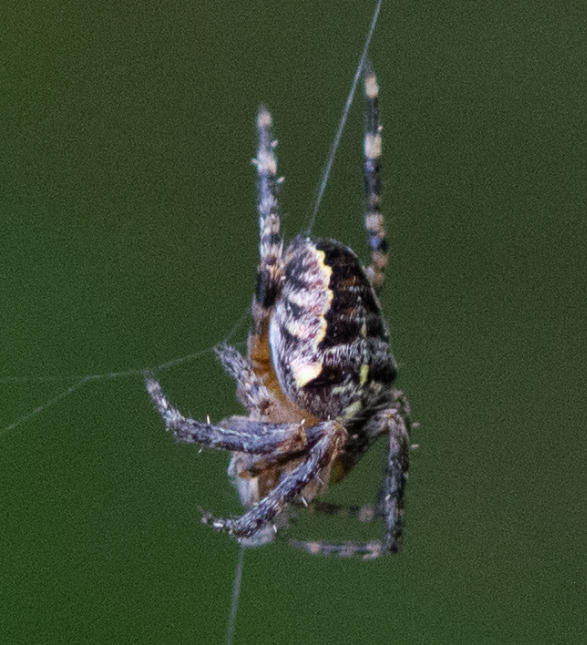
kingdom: Animalia
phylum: Arthropoda
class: Arachnida
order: Araneae
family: Araneidae
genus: Araneus
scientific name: Araneus diadematus
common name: Korsedderkop
